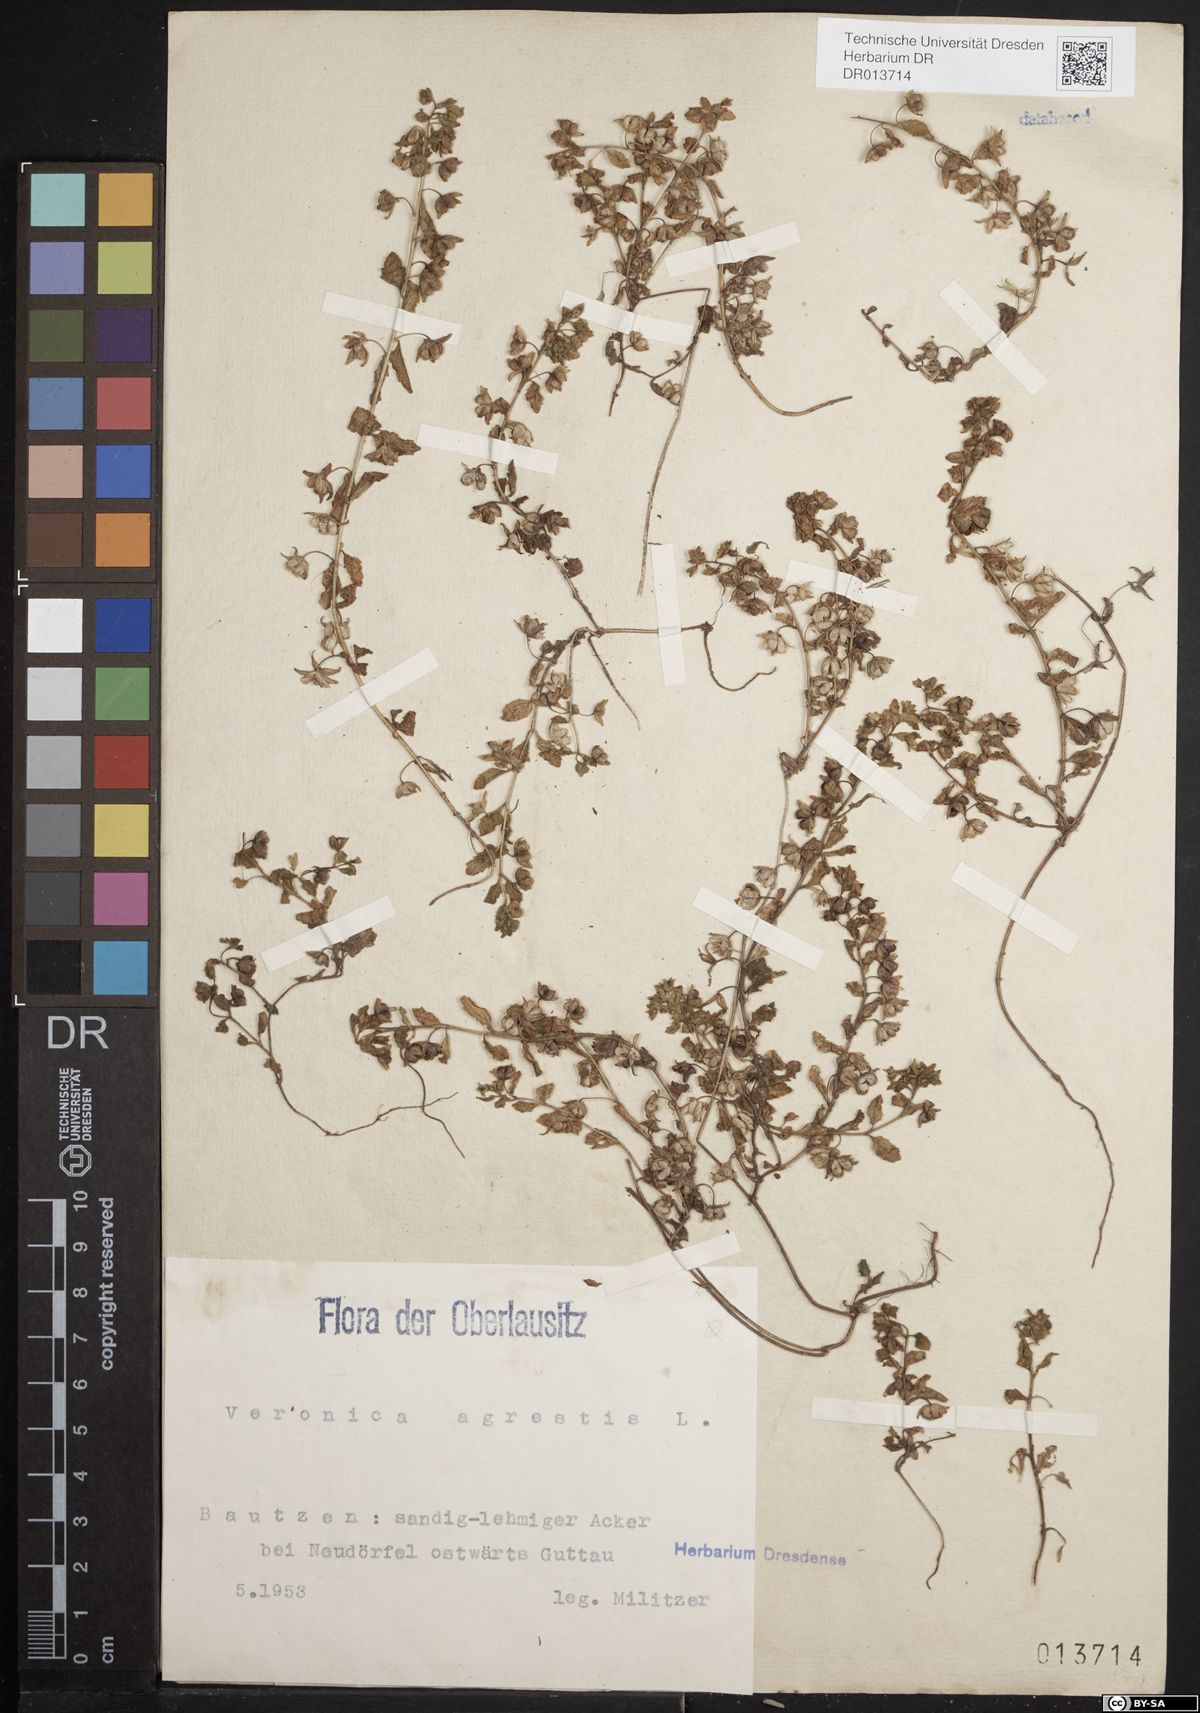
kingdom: Plantae
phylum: Tracheophyta
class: Magnoliopsida
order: Lamiales
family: Plantaginaceae
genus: Veronica
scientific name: Veronica agrestis
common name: Green field-speedwell
